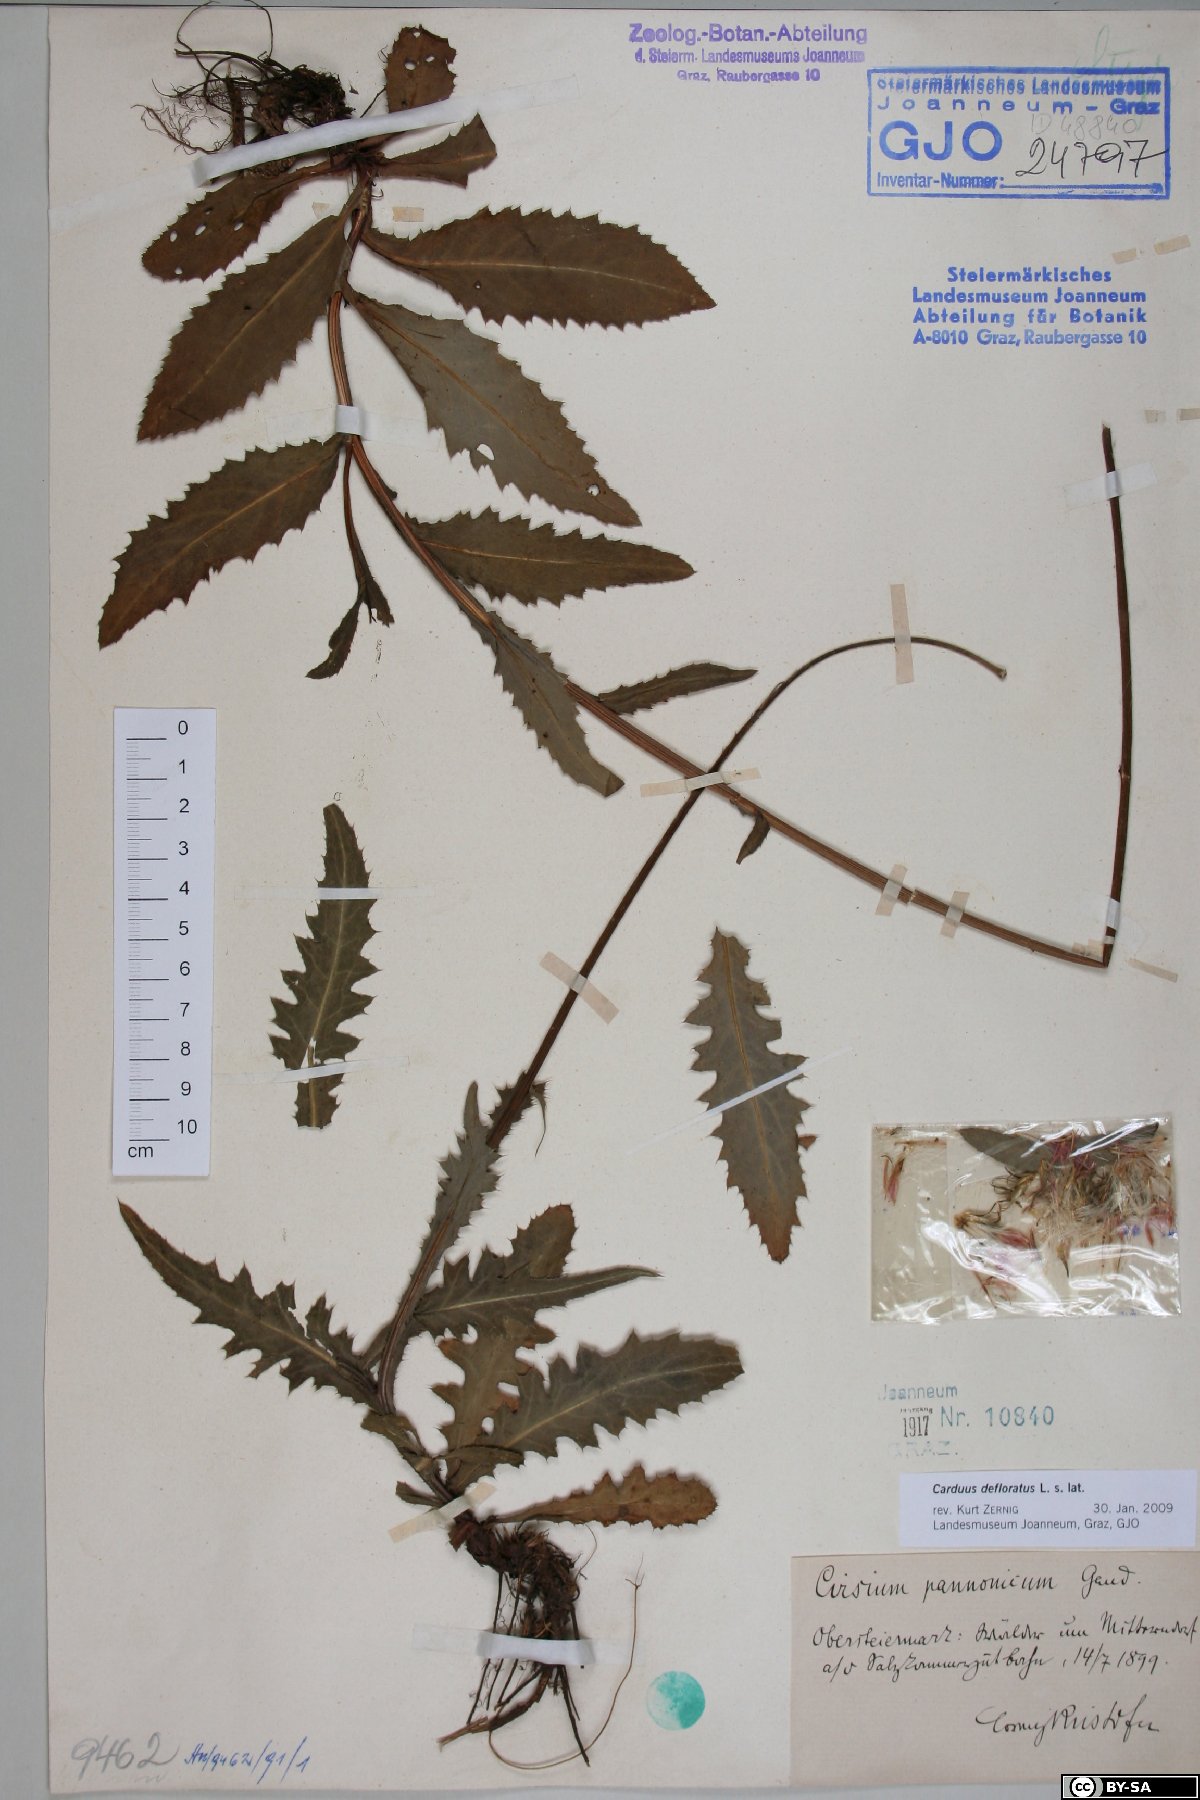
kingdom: Plantae
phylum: Tracheophyta
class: Magnoliopsida
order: Asterales
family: Asteraceae
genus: Carduus
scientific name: Carduus defloratus
